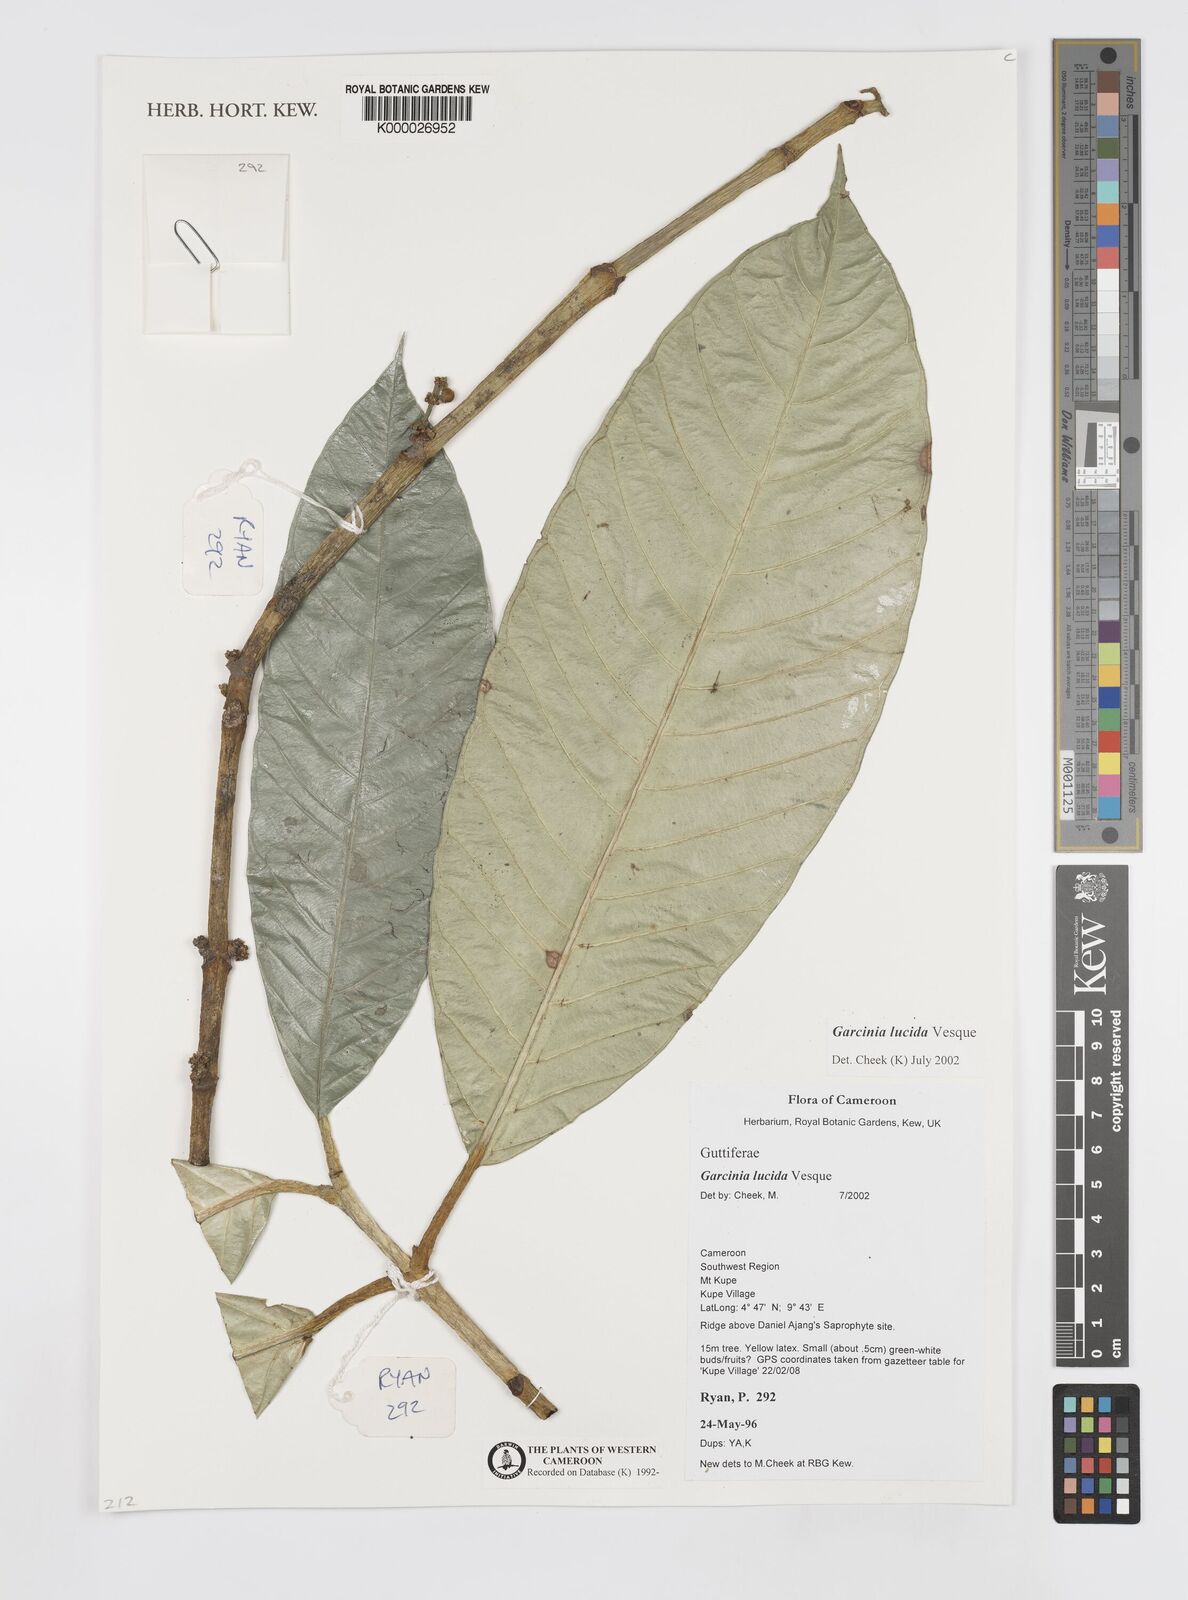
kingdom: Plantae
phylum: Tracheophyta
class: Magnoliopsida
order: Malpighiales
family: Clusiaceae
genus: Garcinia
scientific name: Garcinia lucida
